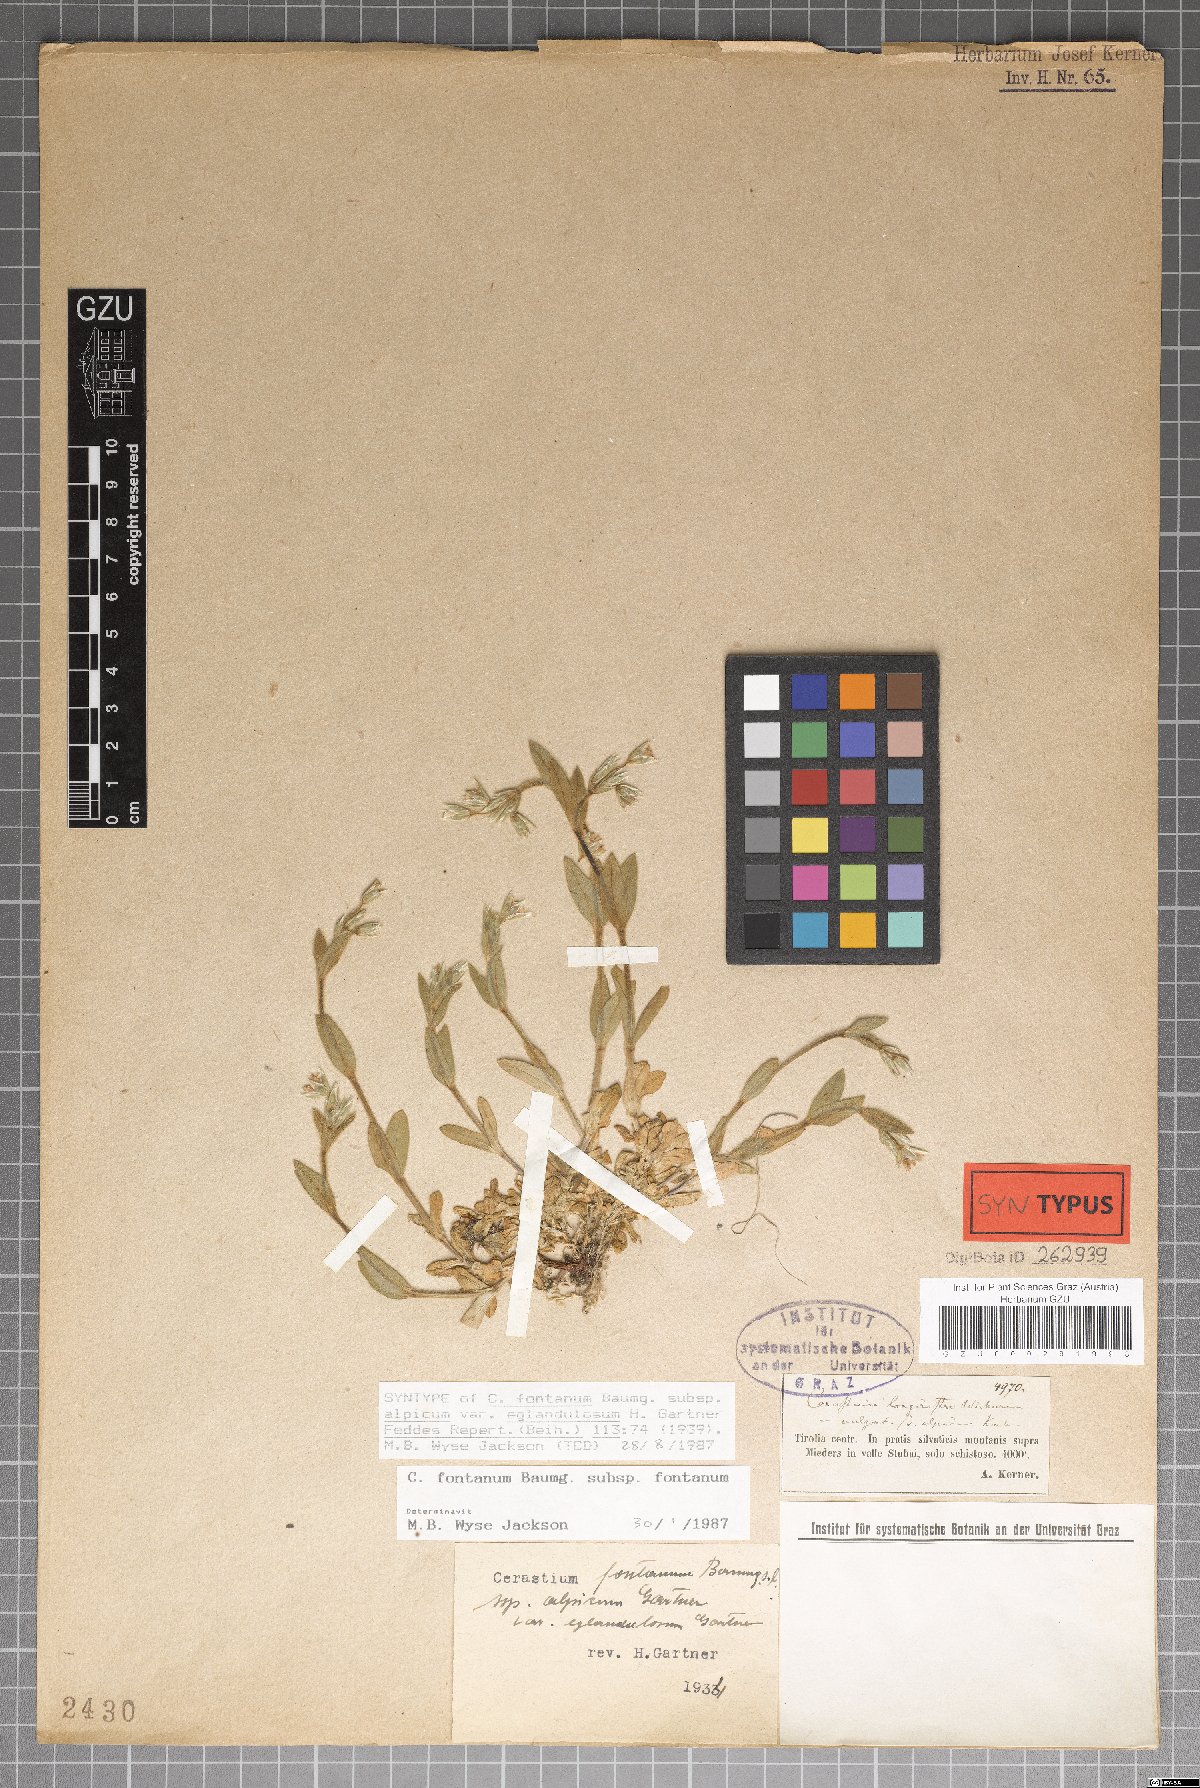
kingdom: Plantae
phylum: Tracheophyta
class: Magnoliopsida
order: Caryophyllales
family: Caryophyllaceae
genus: Cerastium
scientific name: Cerastium holosteoides
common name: Big chickweed
